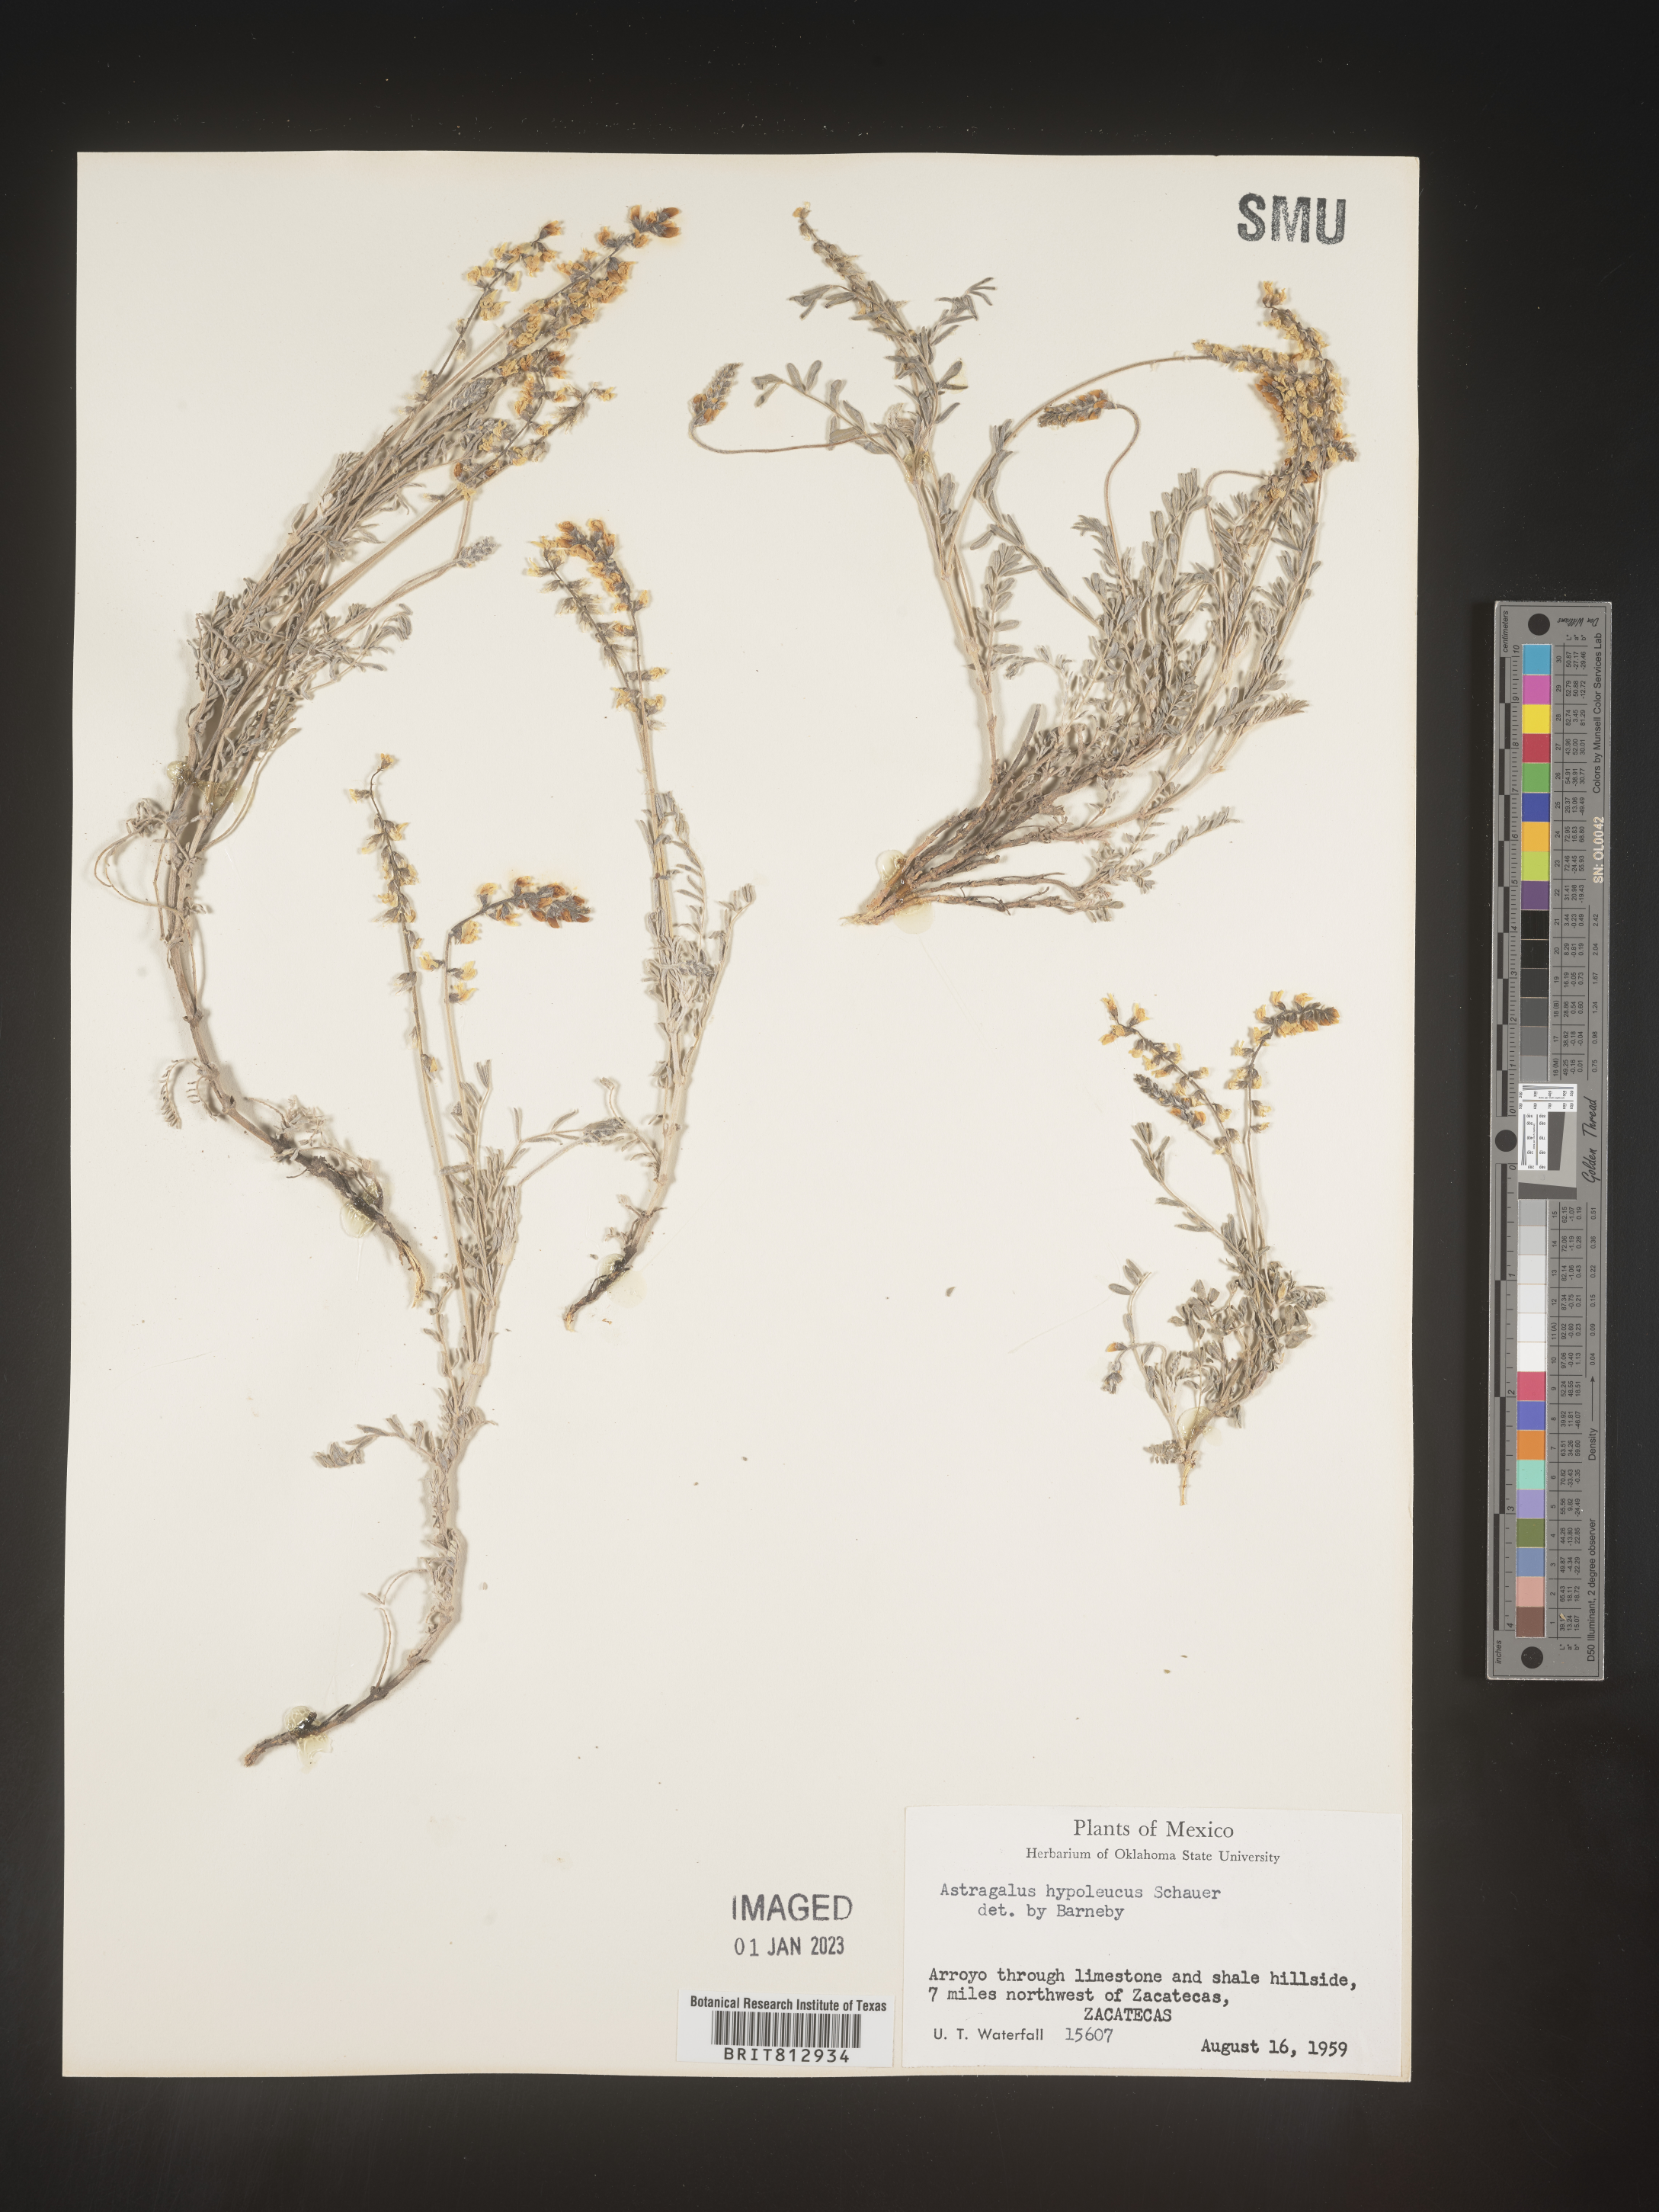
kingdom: Plantae
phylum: Tracheophyta
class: Magnoliopsida
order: Fabales
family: Fabaceae
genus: Astragalus
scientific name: Astragalus
